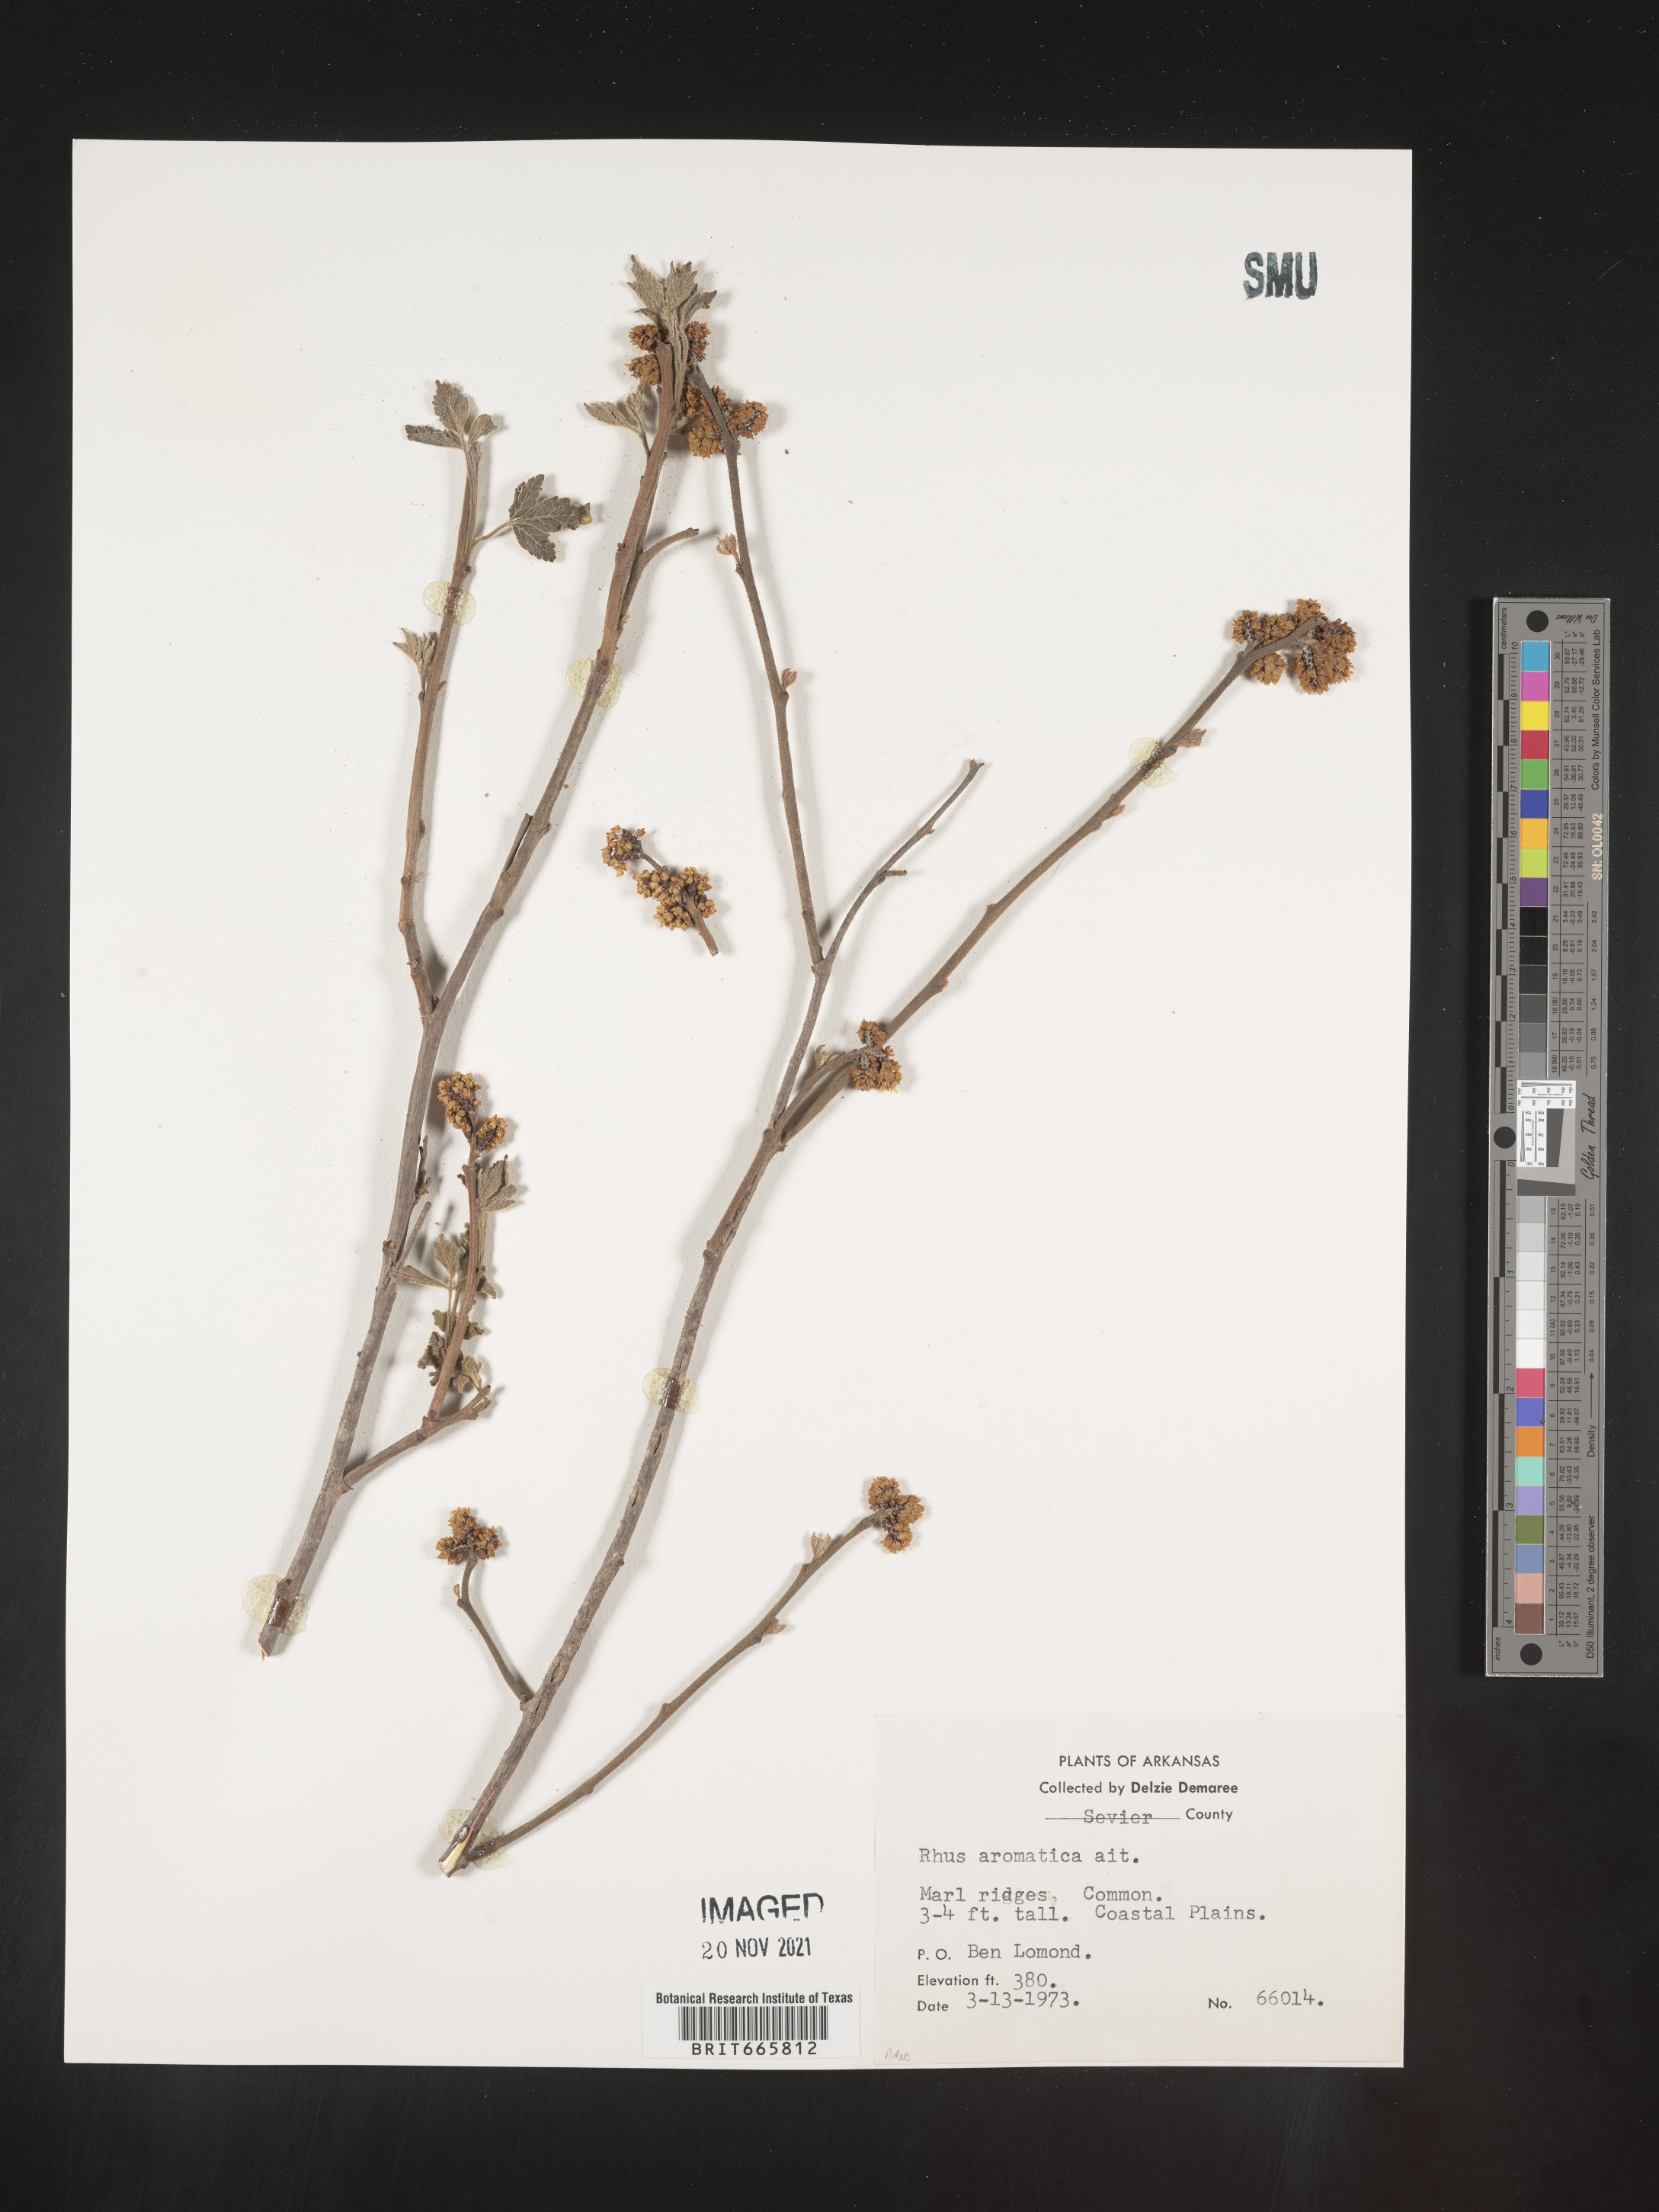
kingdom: Plantae
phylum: Tracheophyta
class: Magnoliopsida
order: Sapindales
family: Anacardiaceae
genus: Rhus
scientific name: Rhus aromatica
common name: Aromatic sumac
